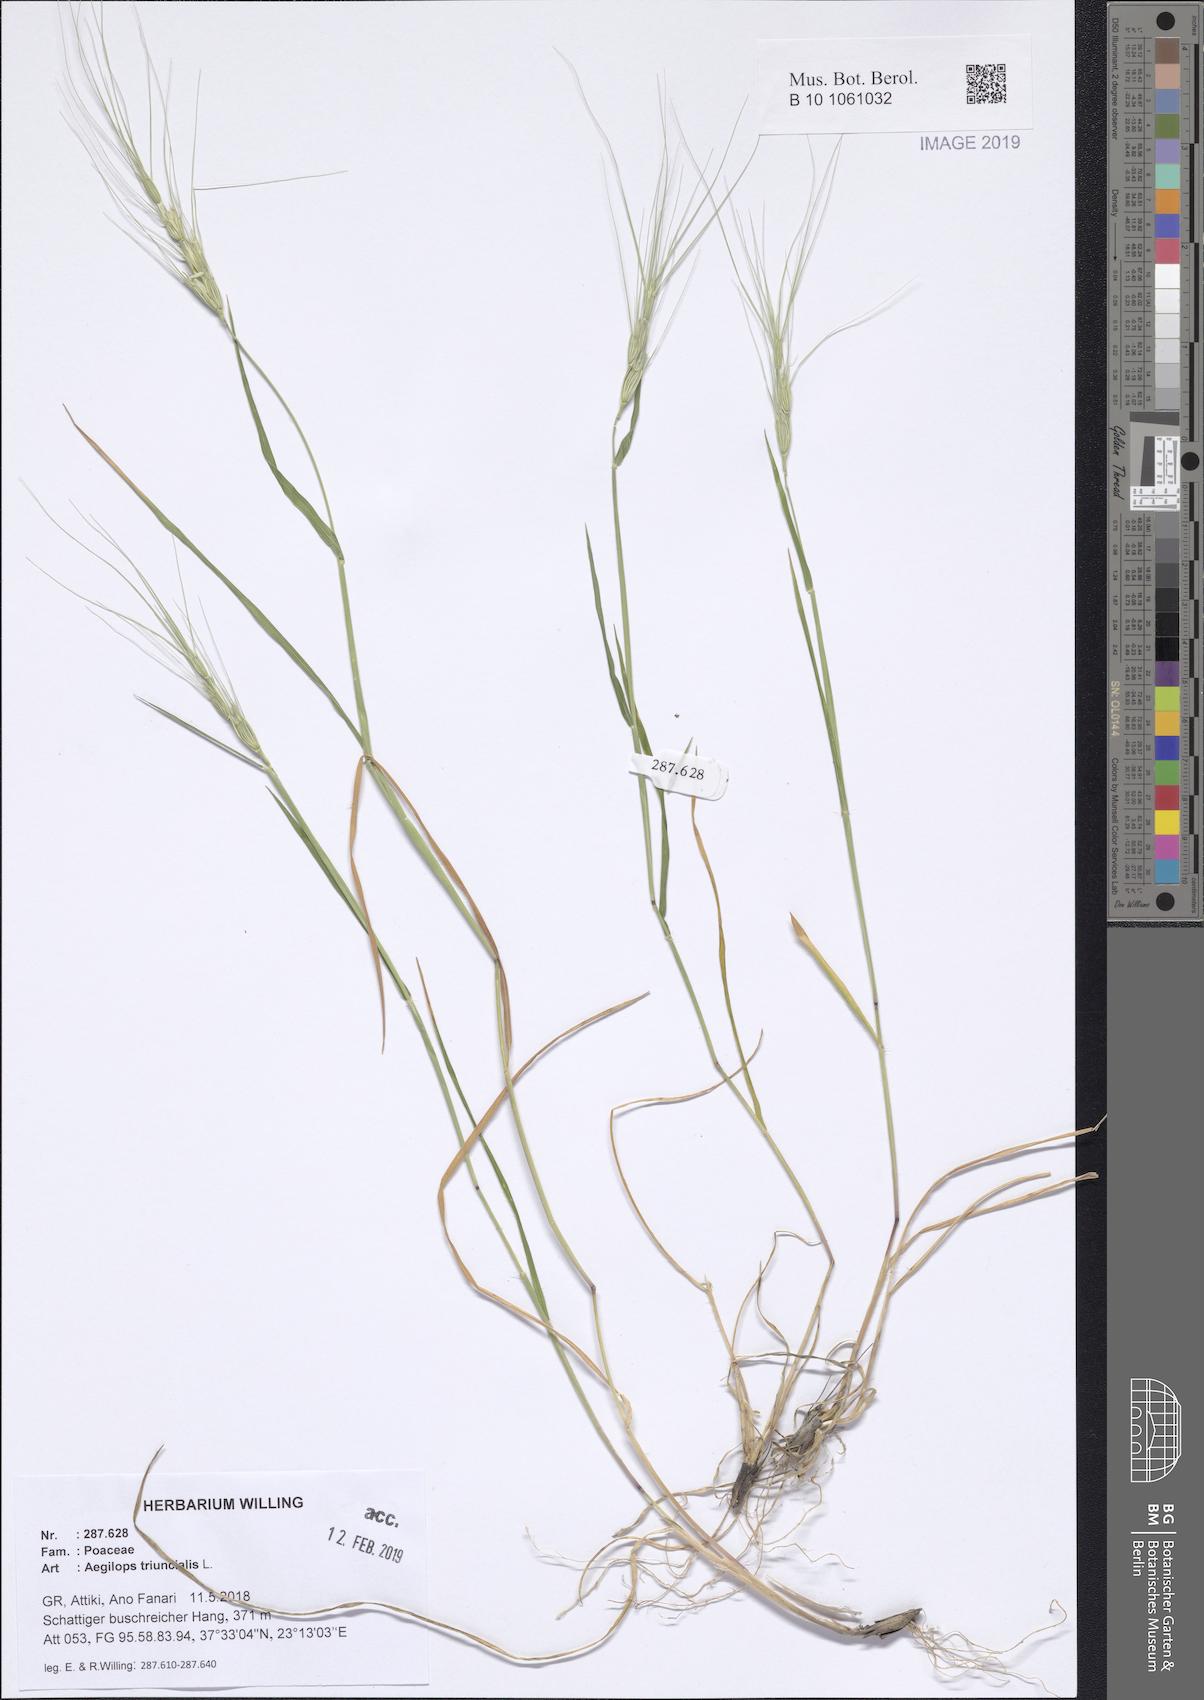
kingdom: Plantae
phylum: Tracheophyta
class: Liliopsida
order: Poales
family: Poaceae
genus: Aegilops
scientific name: Aegilops triuncialis
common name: Barb goat grass
